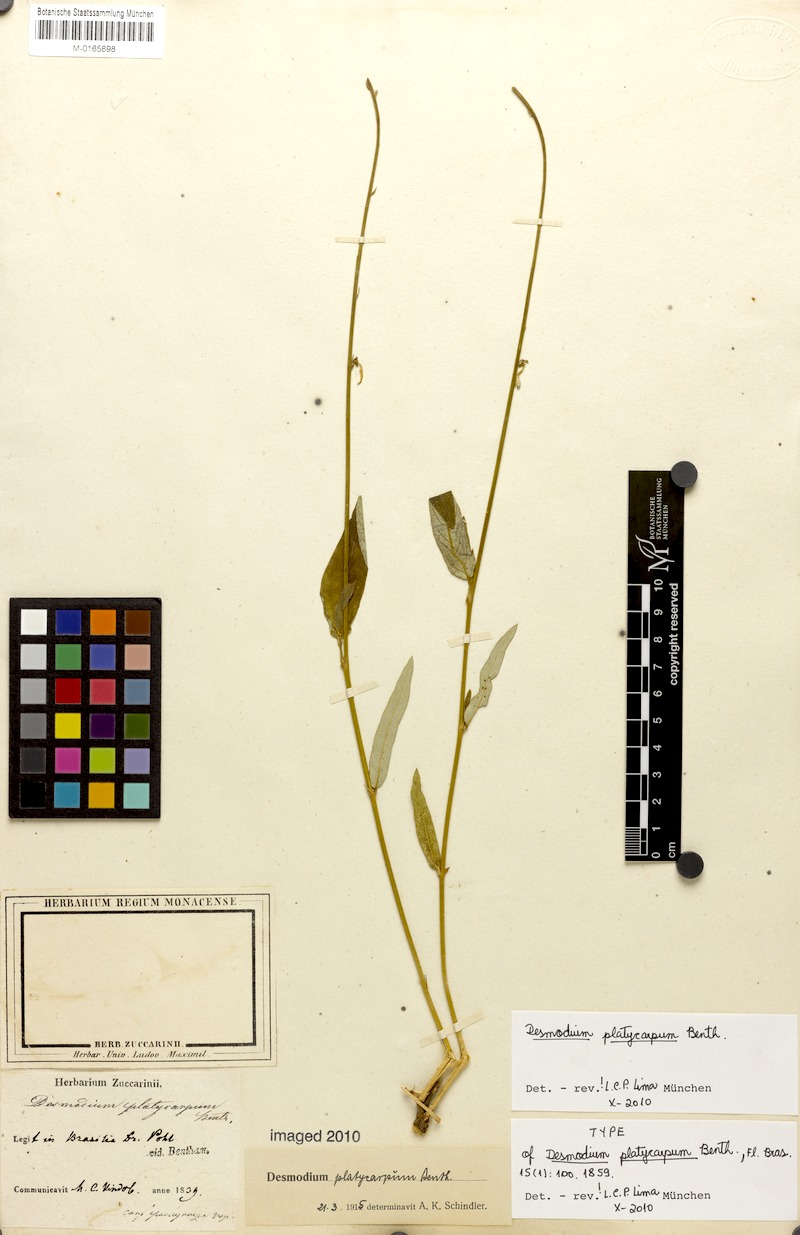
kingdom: Plantae
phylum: Tracheophyta
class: Magnoliopsida
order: Fabales
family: Fabaceae
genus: Desmodium
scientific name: Desmodium platycarpum
